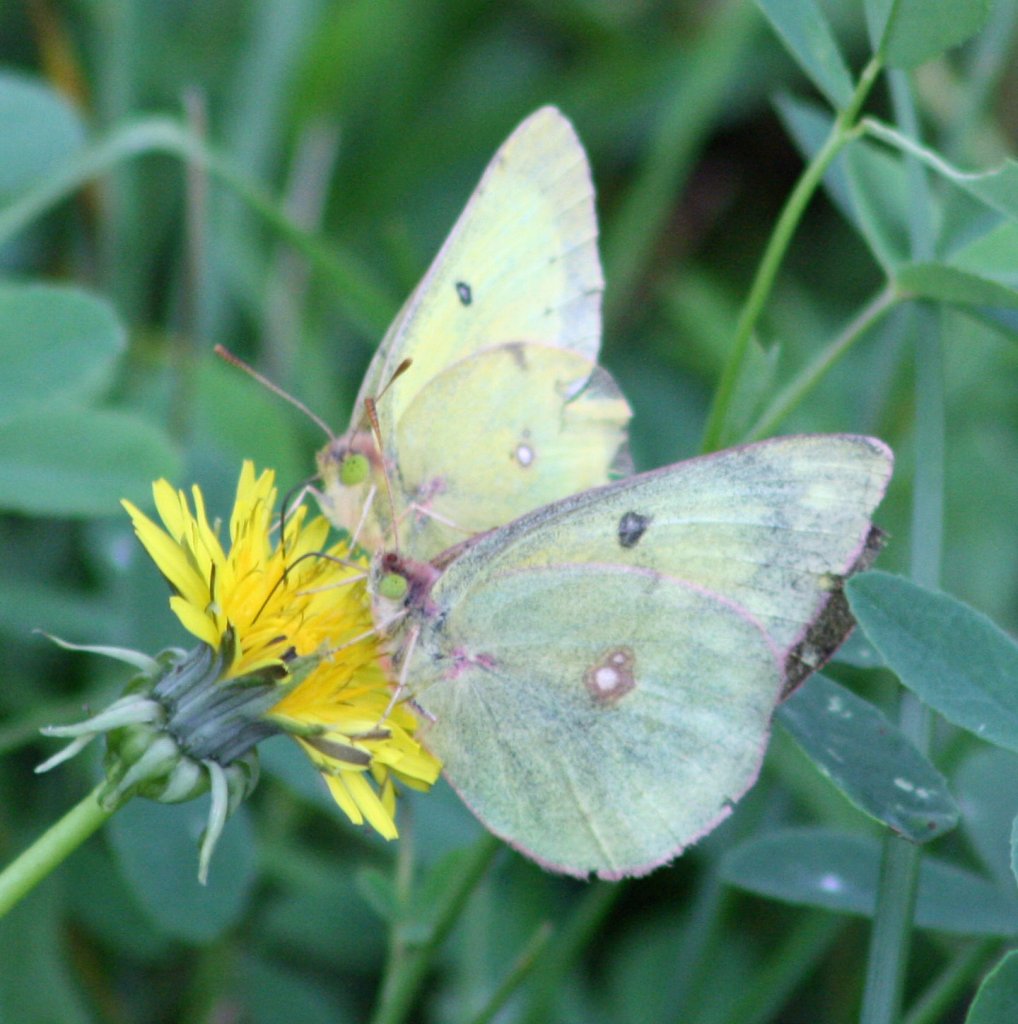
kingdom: Animalia
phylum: Arthropoda
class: Insecta
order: Lepidoptera
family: Pieridae
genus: Colias
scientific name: Colias philodice
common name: Clouded Sulphur
